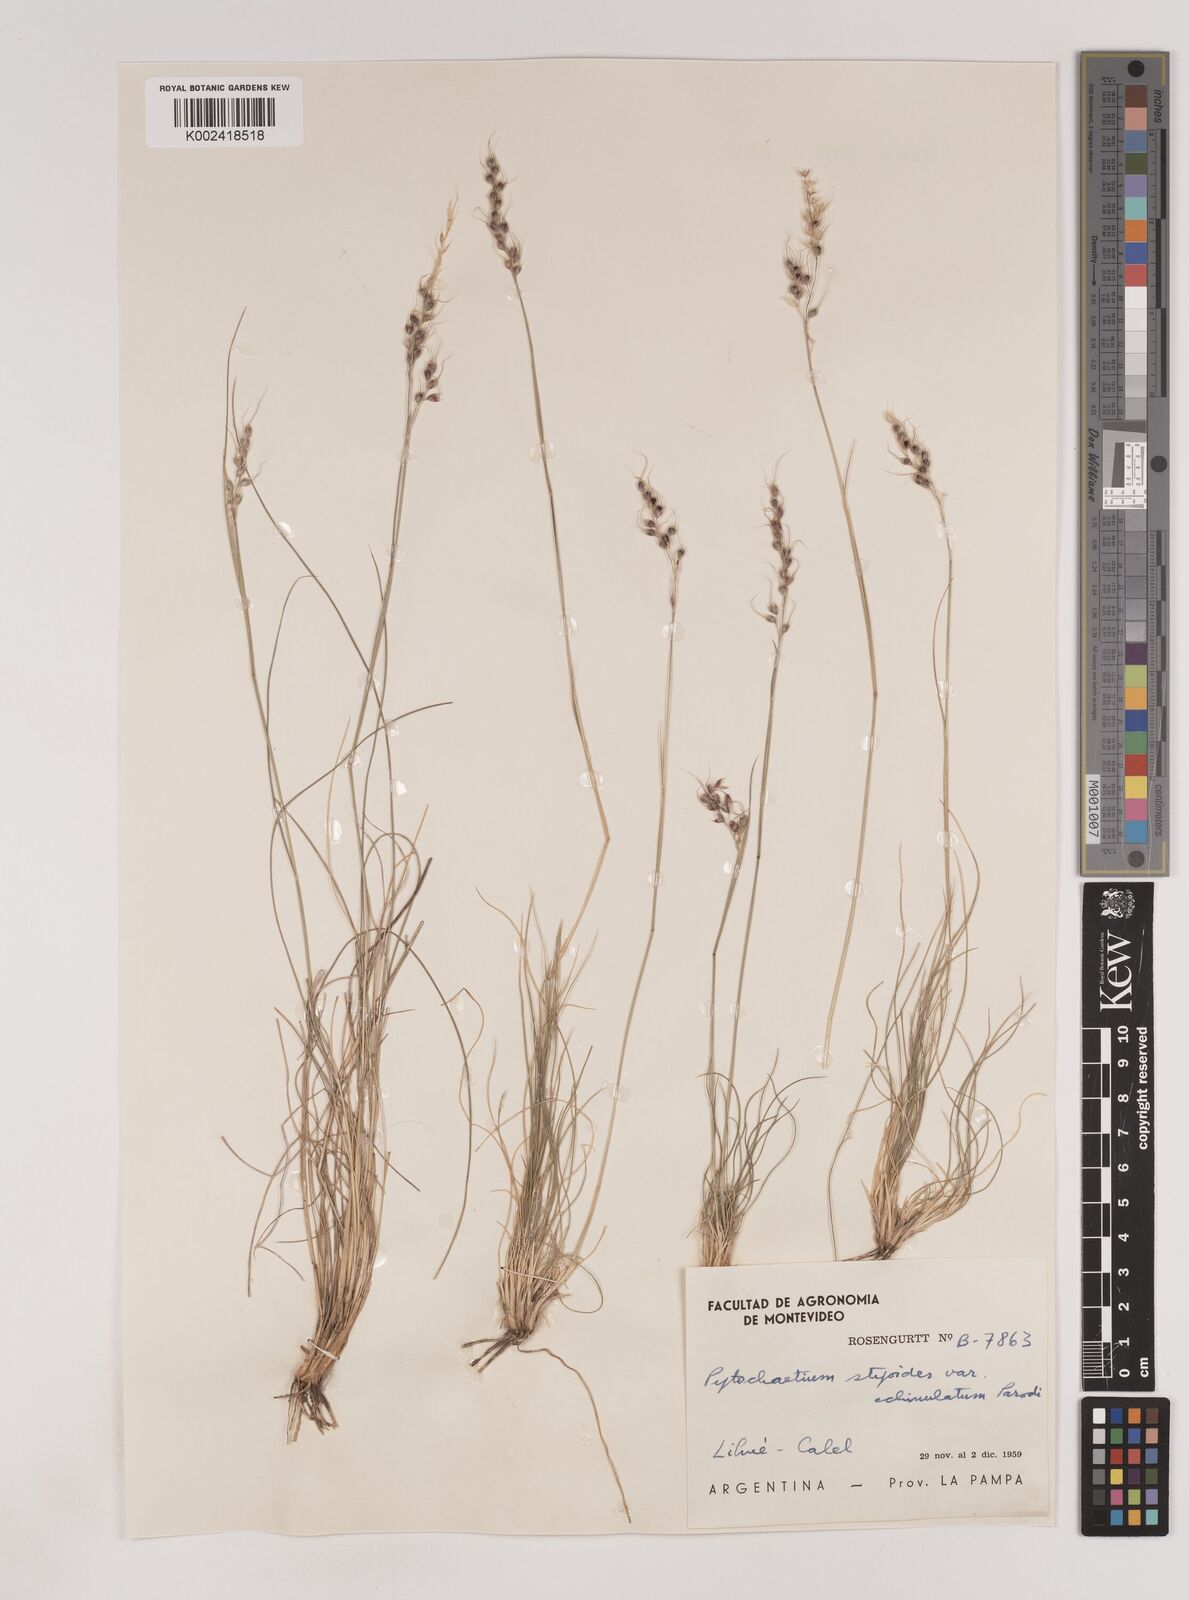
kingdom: Plantae
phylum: Tracheophyta
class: Liliopsida
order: Poales
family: Poaceae
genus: Piptochaetium
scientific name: Piptochaetium stipoides
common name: Purple speargrass
